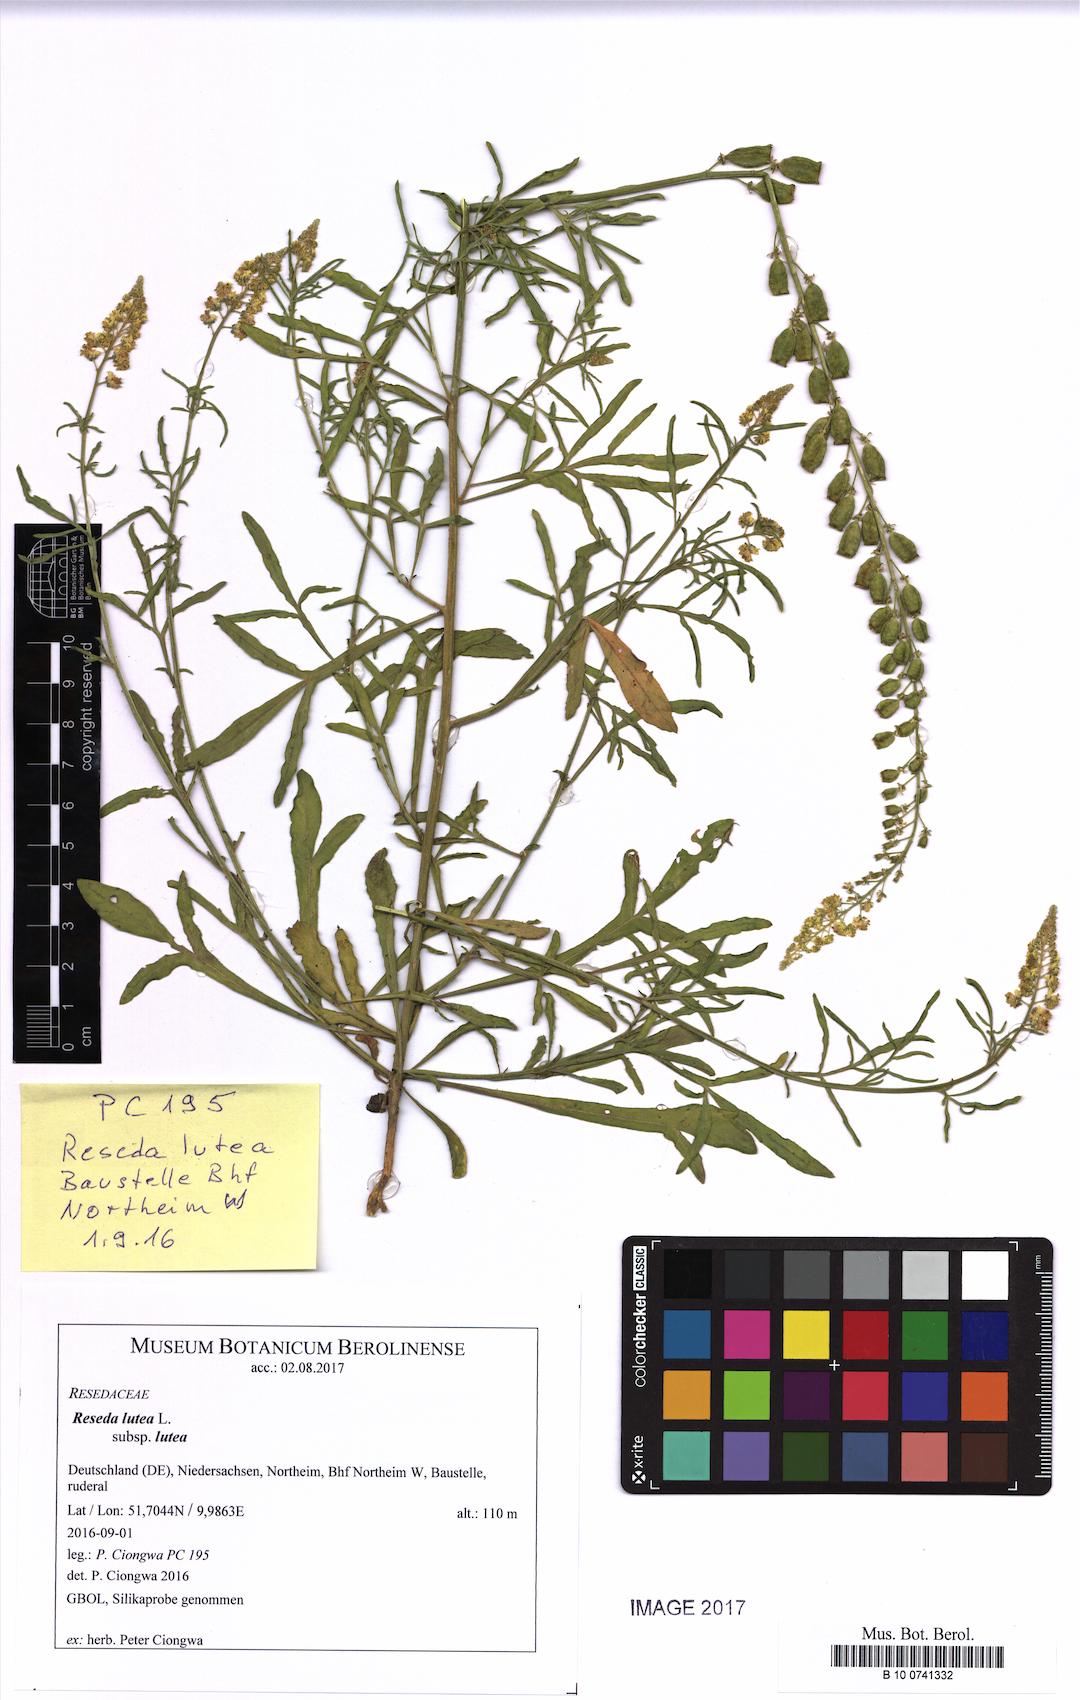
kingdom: Plantae
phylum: Tracheophyta
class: Magnoliopsida
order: Brassicales
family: Resedaceae
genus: Reseda
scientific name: Reseda lutea
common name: Wild mignonette
